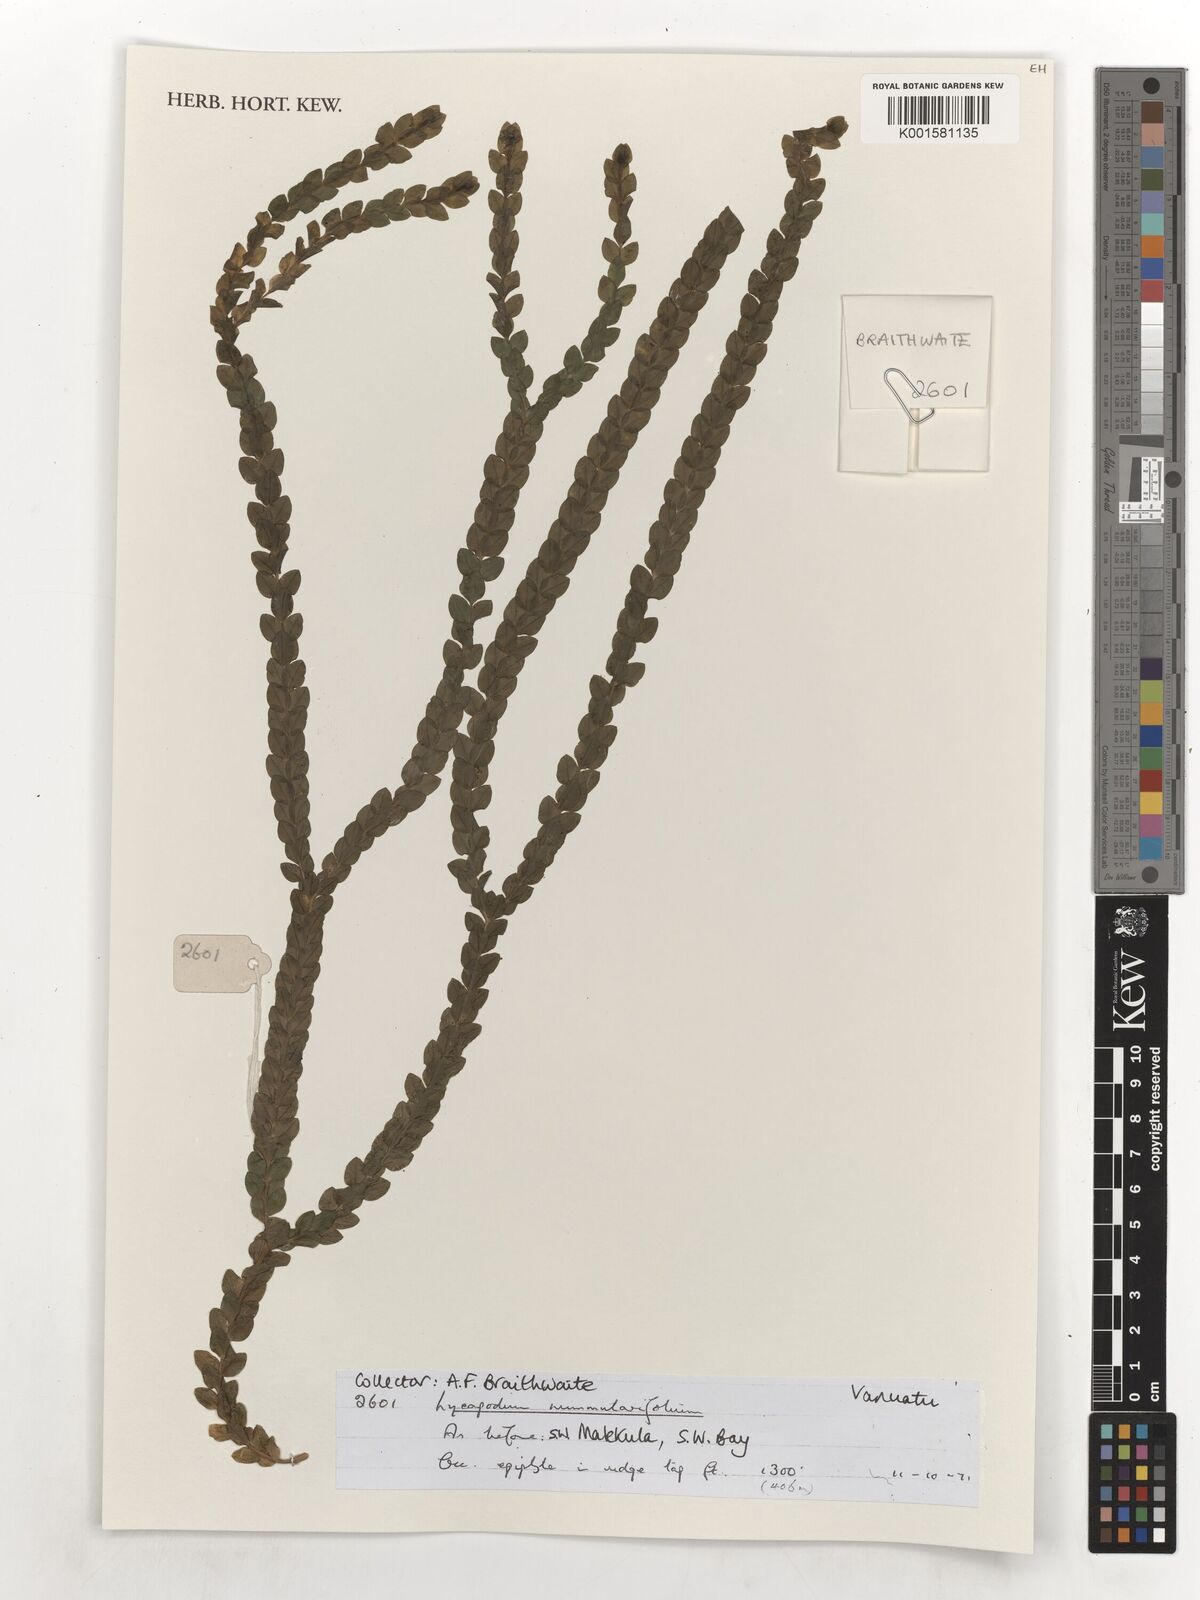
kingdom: Plantae
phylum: Tracheophyta
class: Lycopodiopsida
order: Lycopodiales
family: Lycopodiaceae
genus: Phlegmariurus
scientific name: Phlegmariurus nummulariifolius
